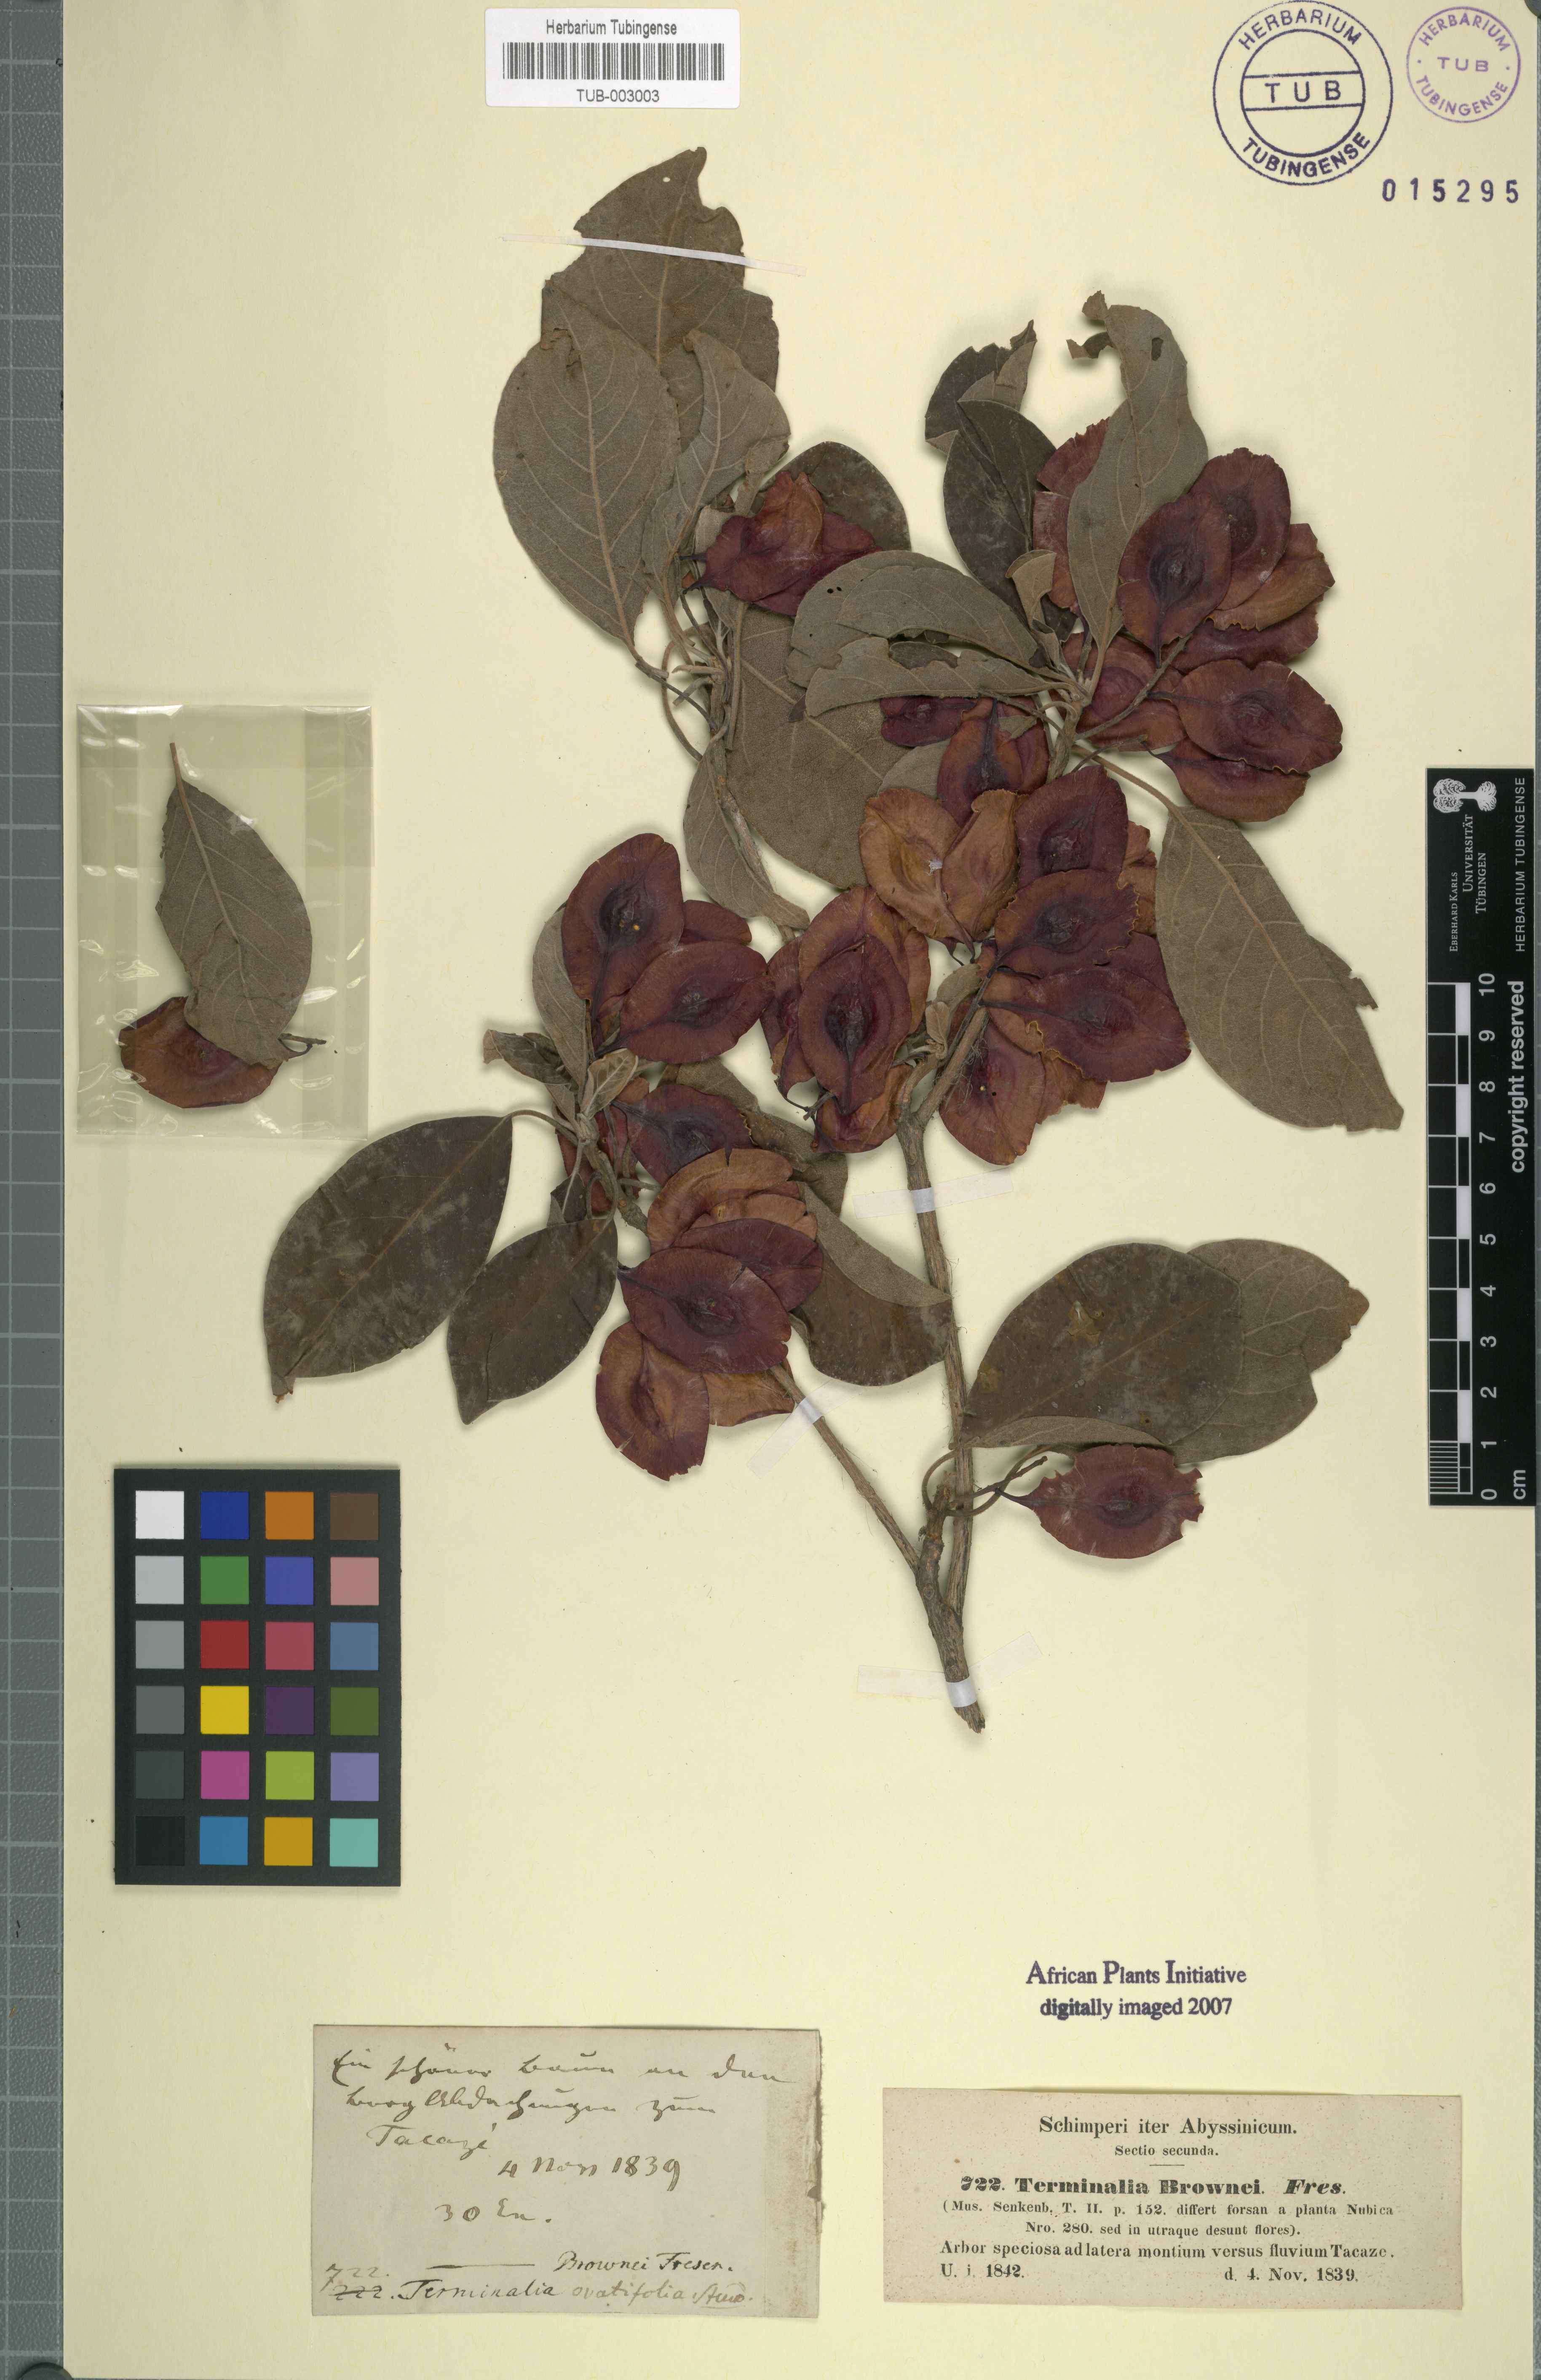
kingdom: Plantae
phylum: Tracheophyta
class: Magnoliopsida
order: Myrtales
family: Combretaceae
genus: Terminalia
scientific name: Terminalia brownii
